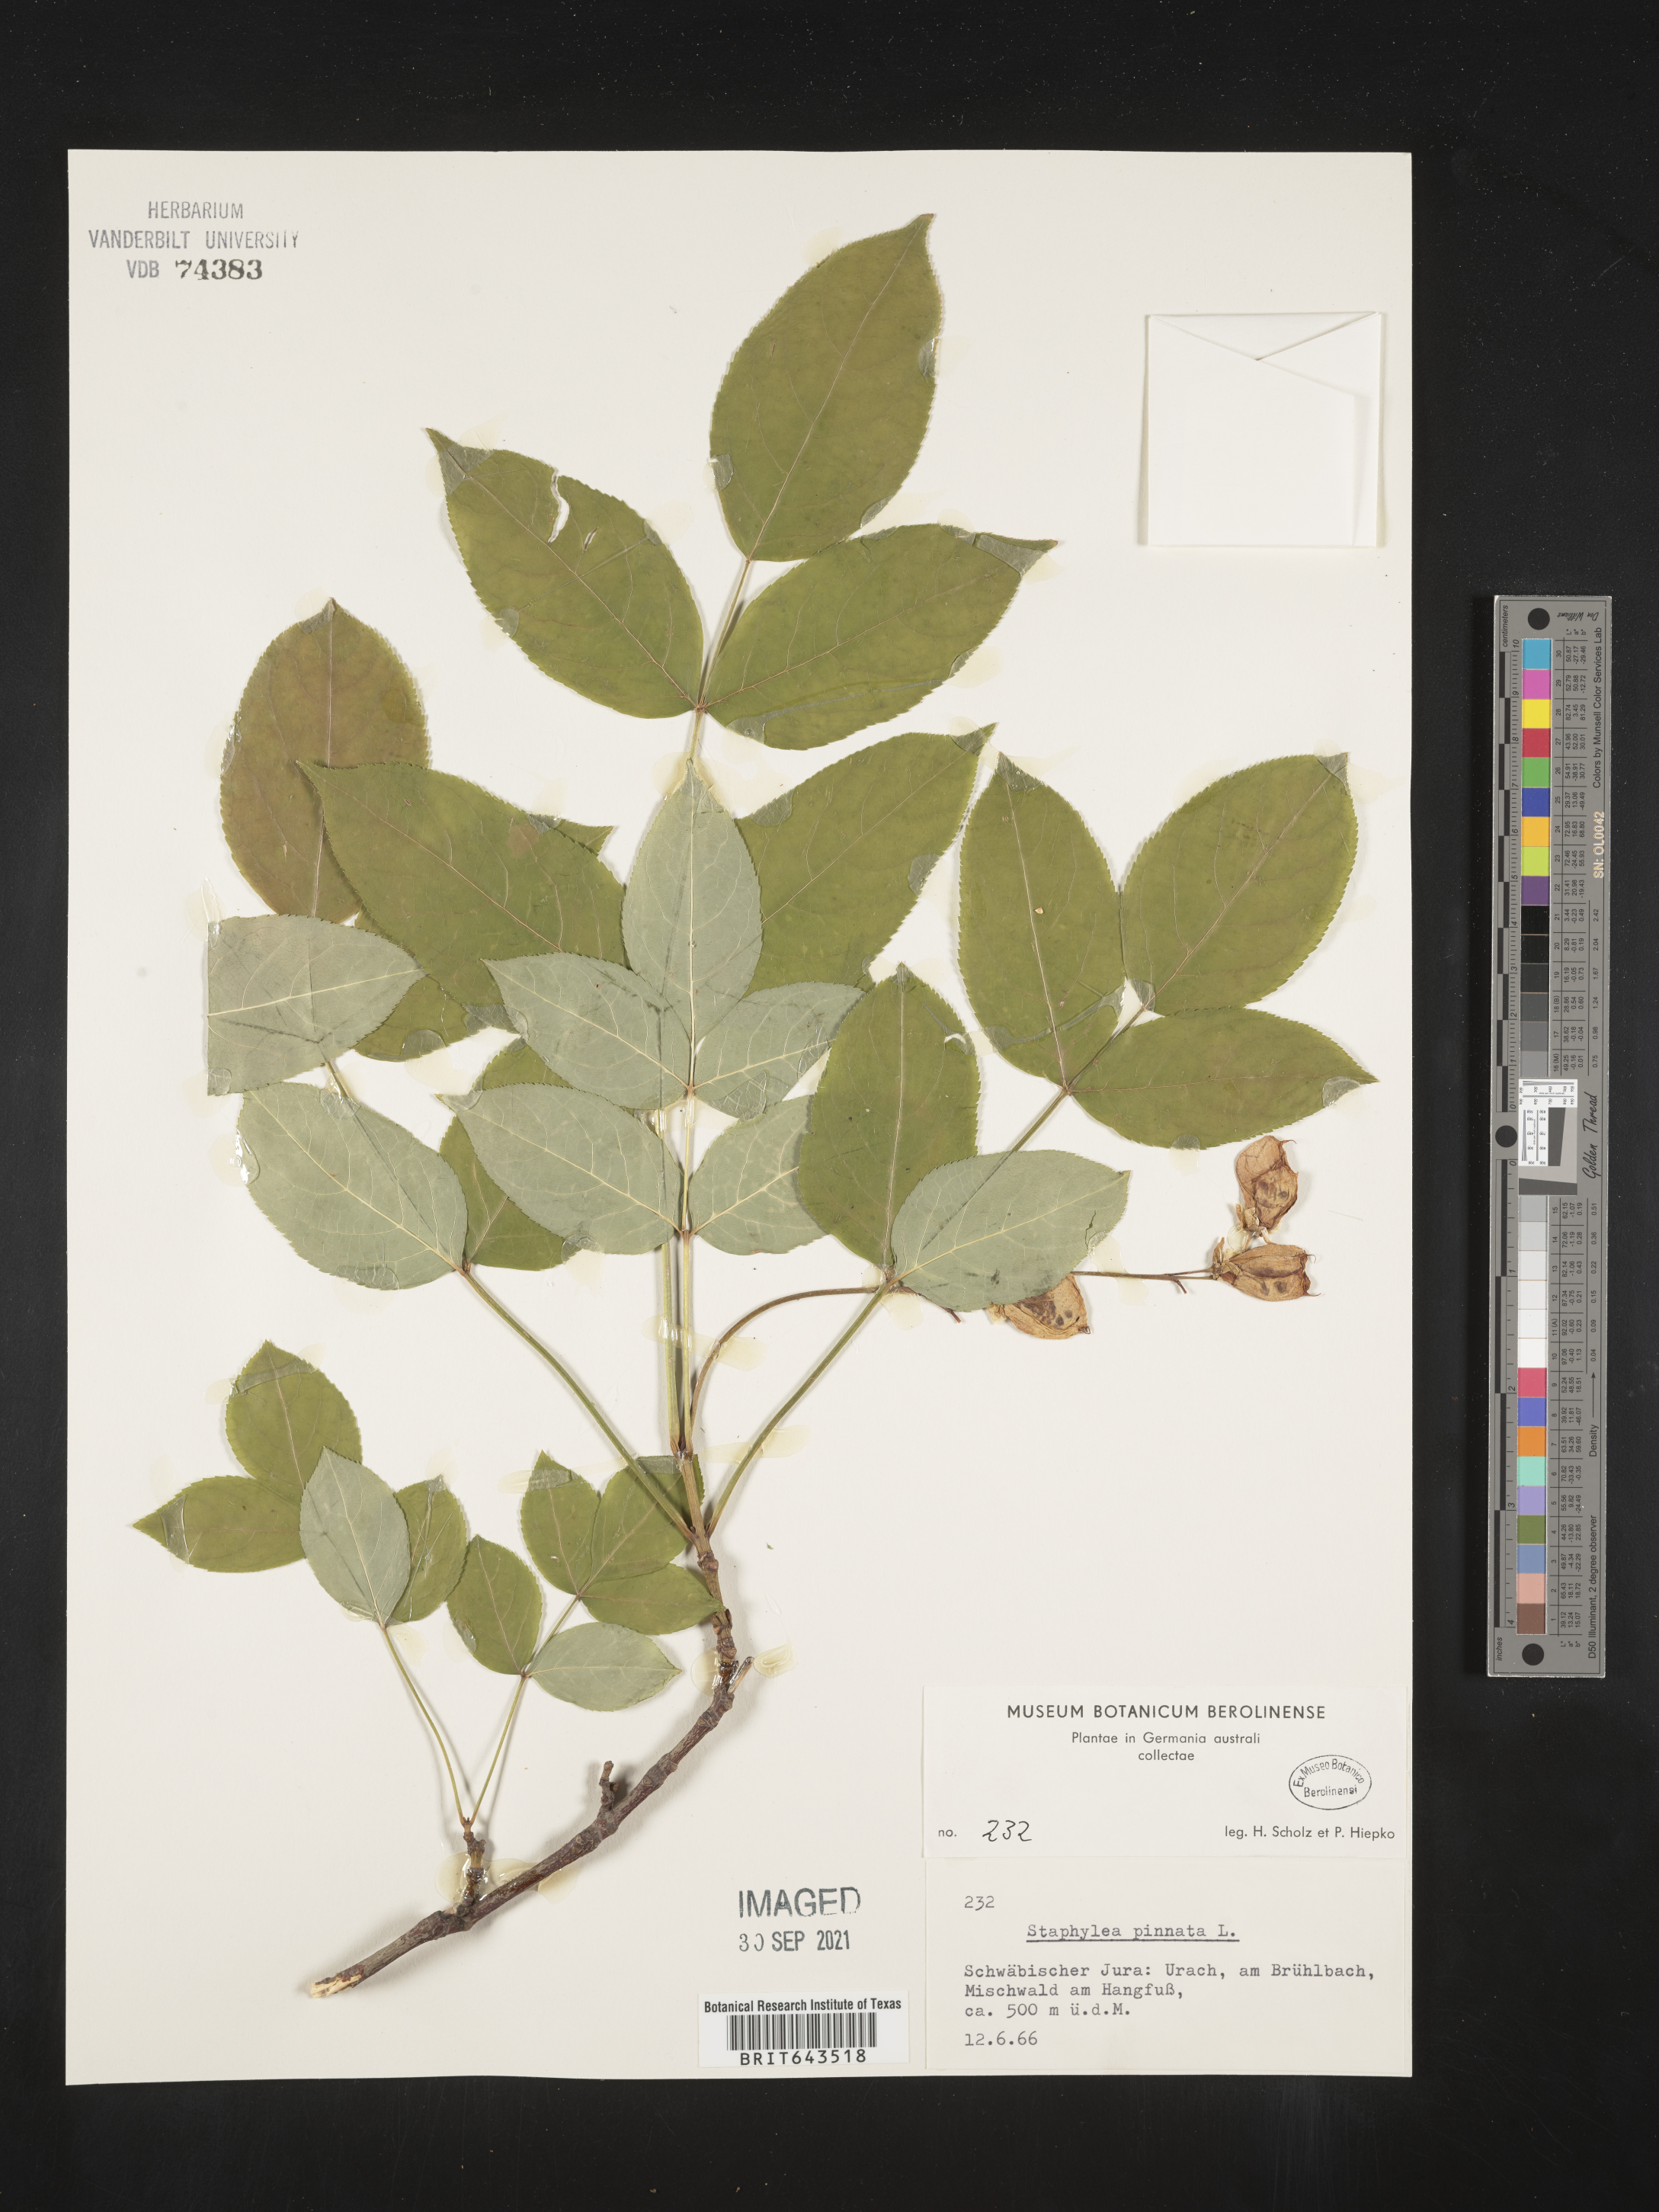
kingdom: Plantae
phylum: Tracheophyta
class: Magnoliopsida
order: Crossosomatales
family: Staphyleaceae
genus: Staphylea
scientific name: Staphylea
